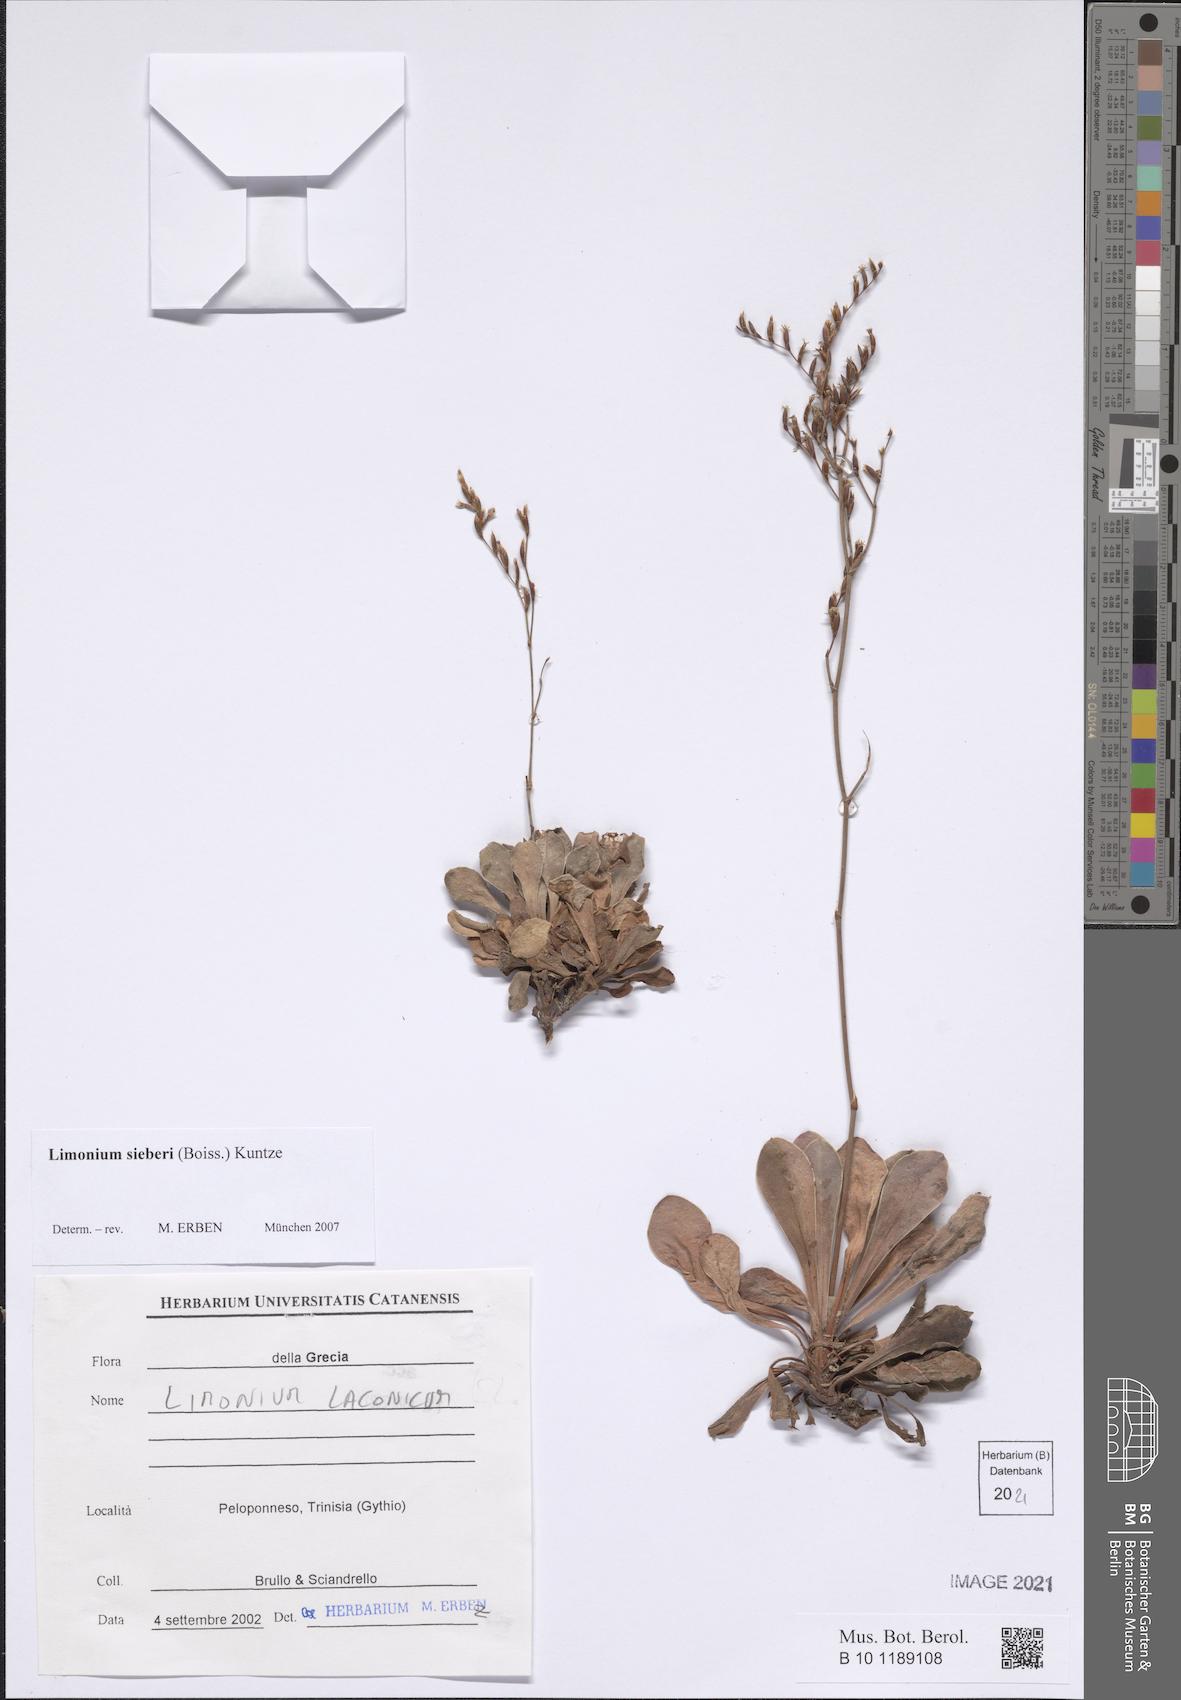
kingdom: Plantae
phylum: Tracheophyta
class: Magnoliopsida
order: Caryophyllales
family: Plumbaginaceae
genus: Limonium
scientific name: Limonium sieberi
